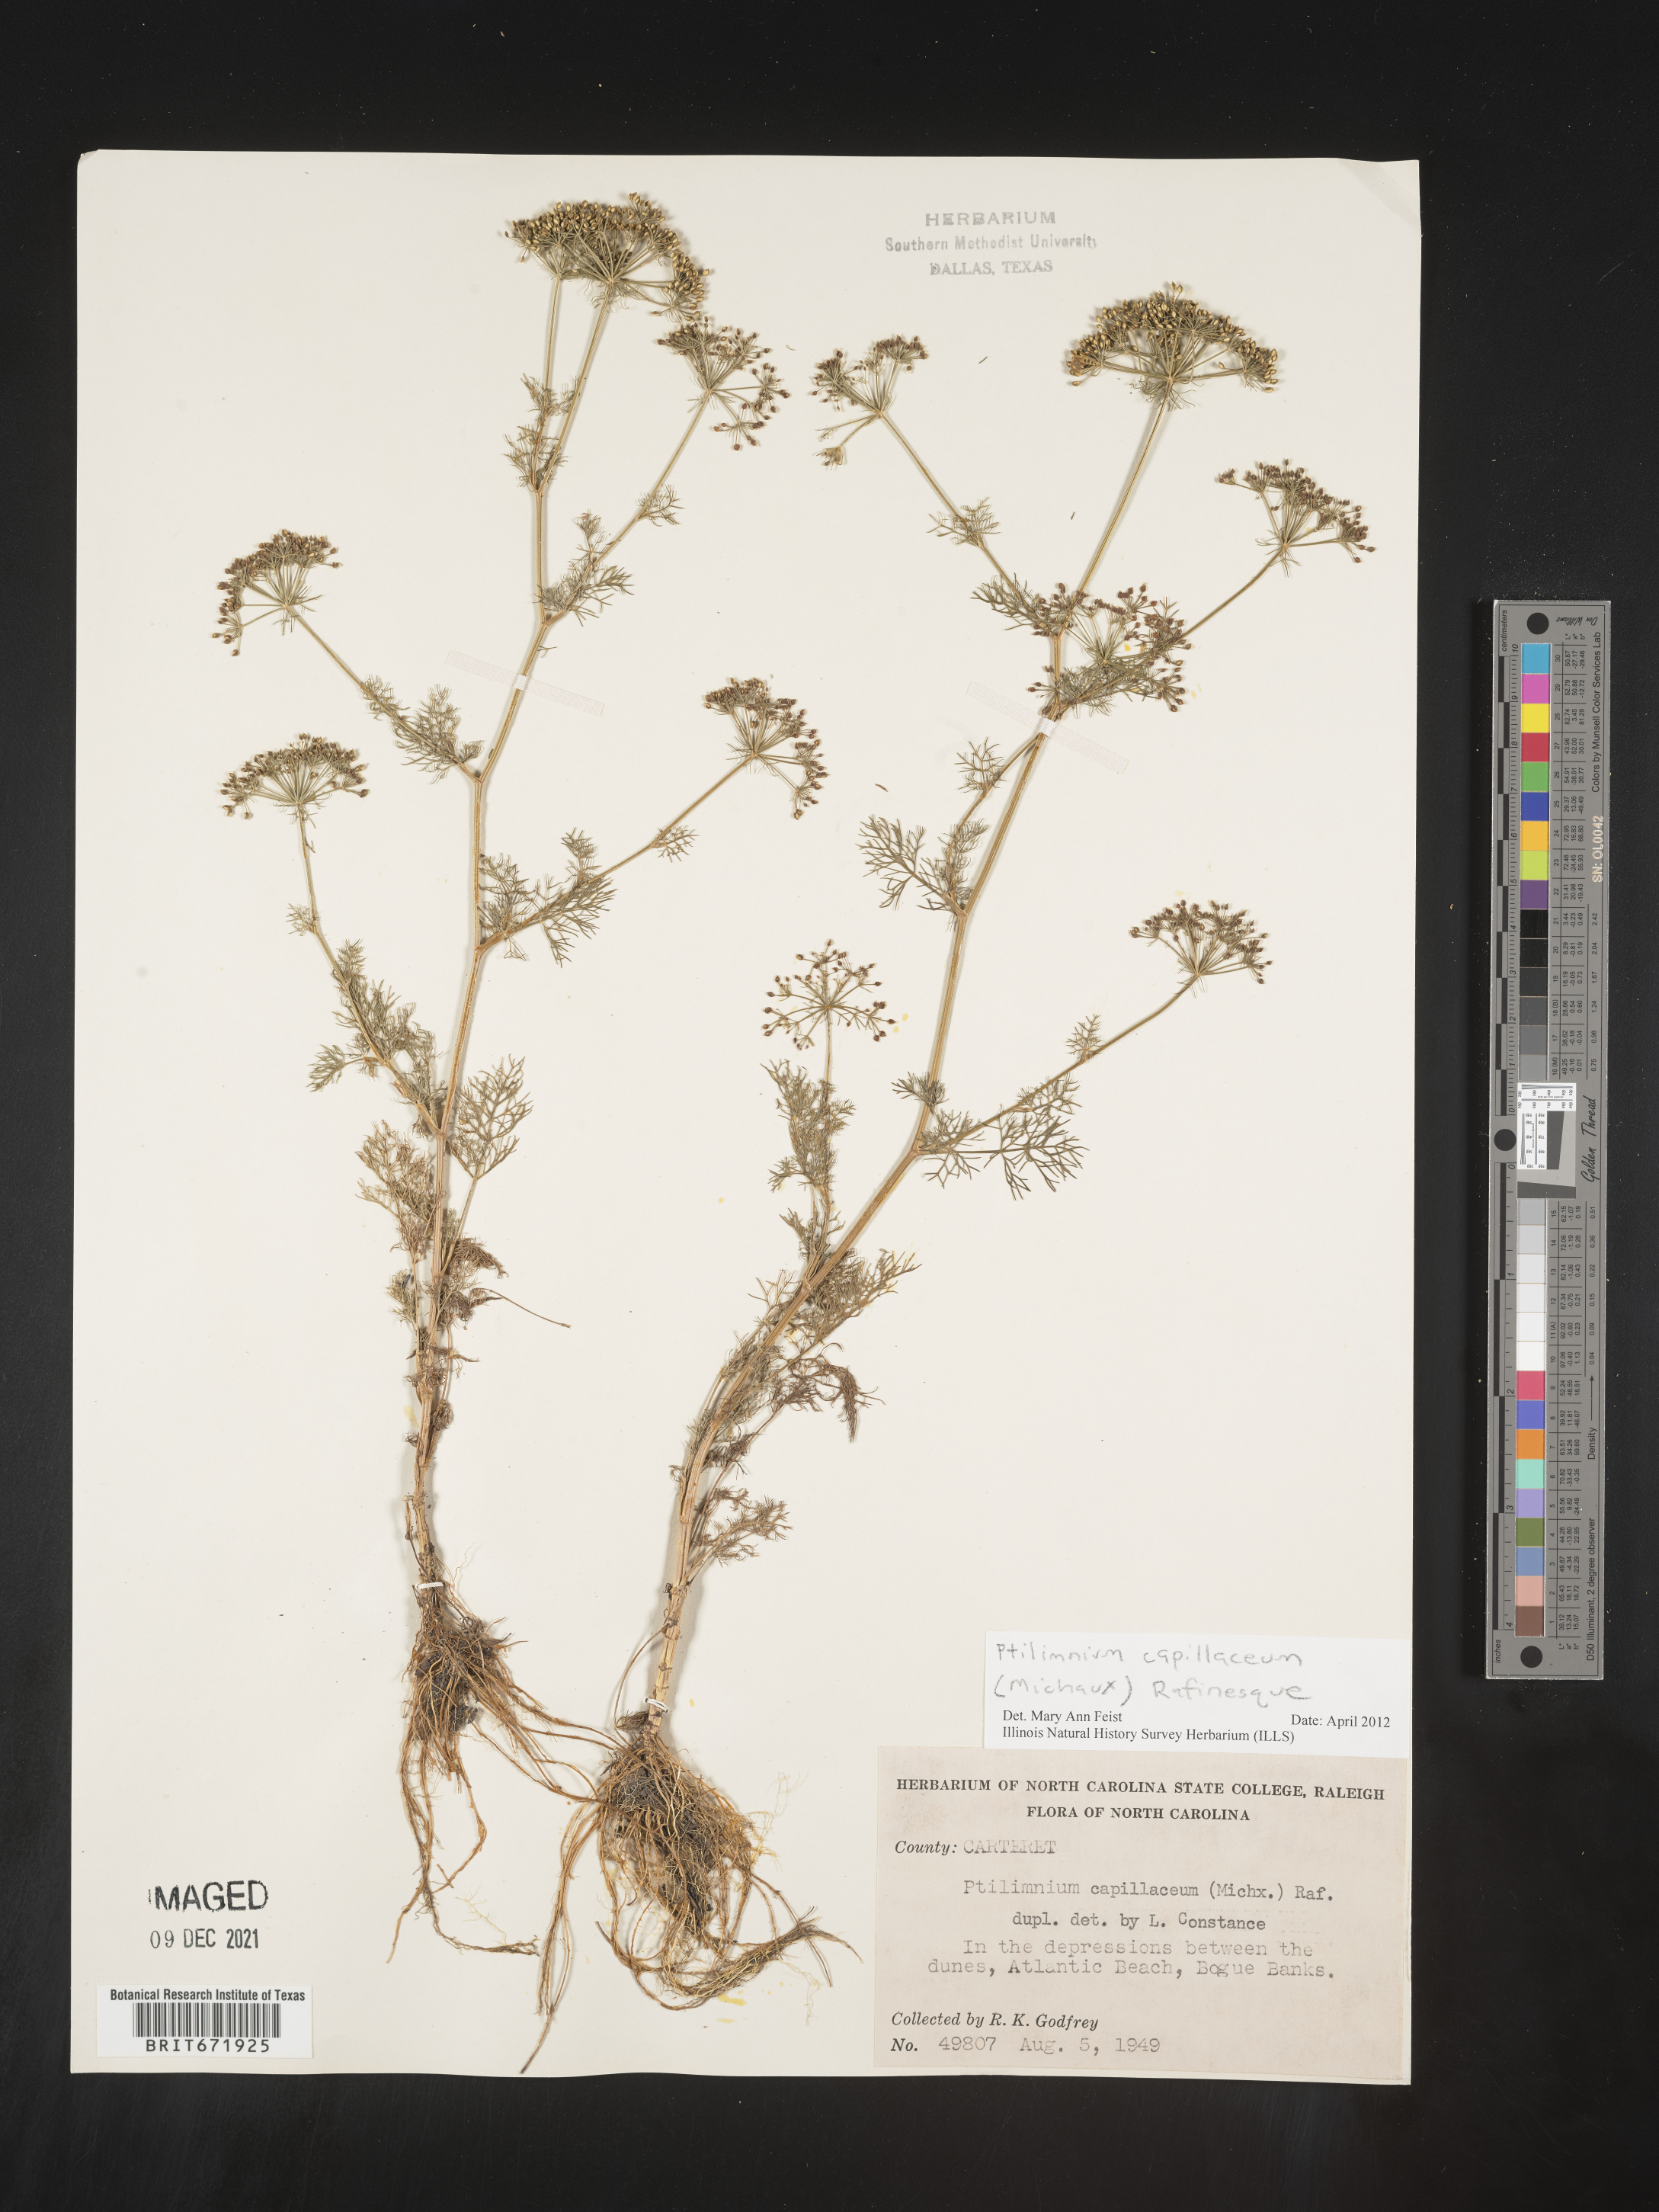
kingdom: Plantae
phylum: Tracheophyta
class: Magnoliopsida
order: Apiales
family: Apiaceae
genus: Ptilimnium
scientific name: Ptilimnium capillaceum
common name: Herbwilliam
